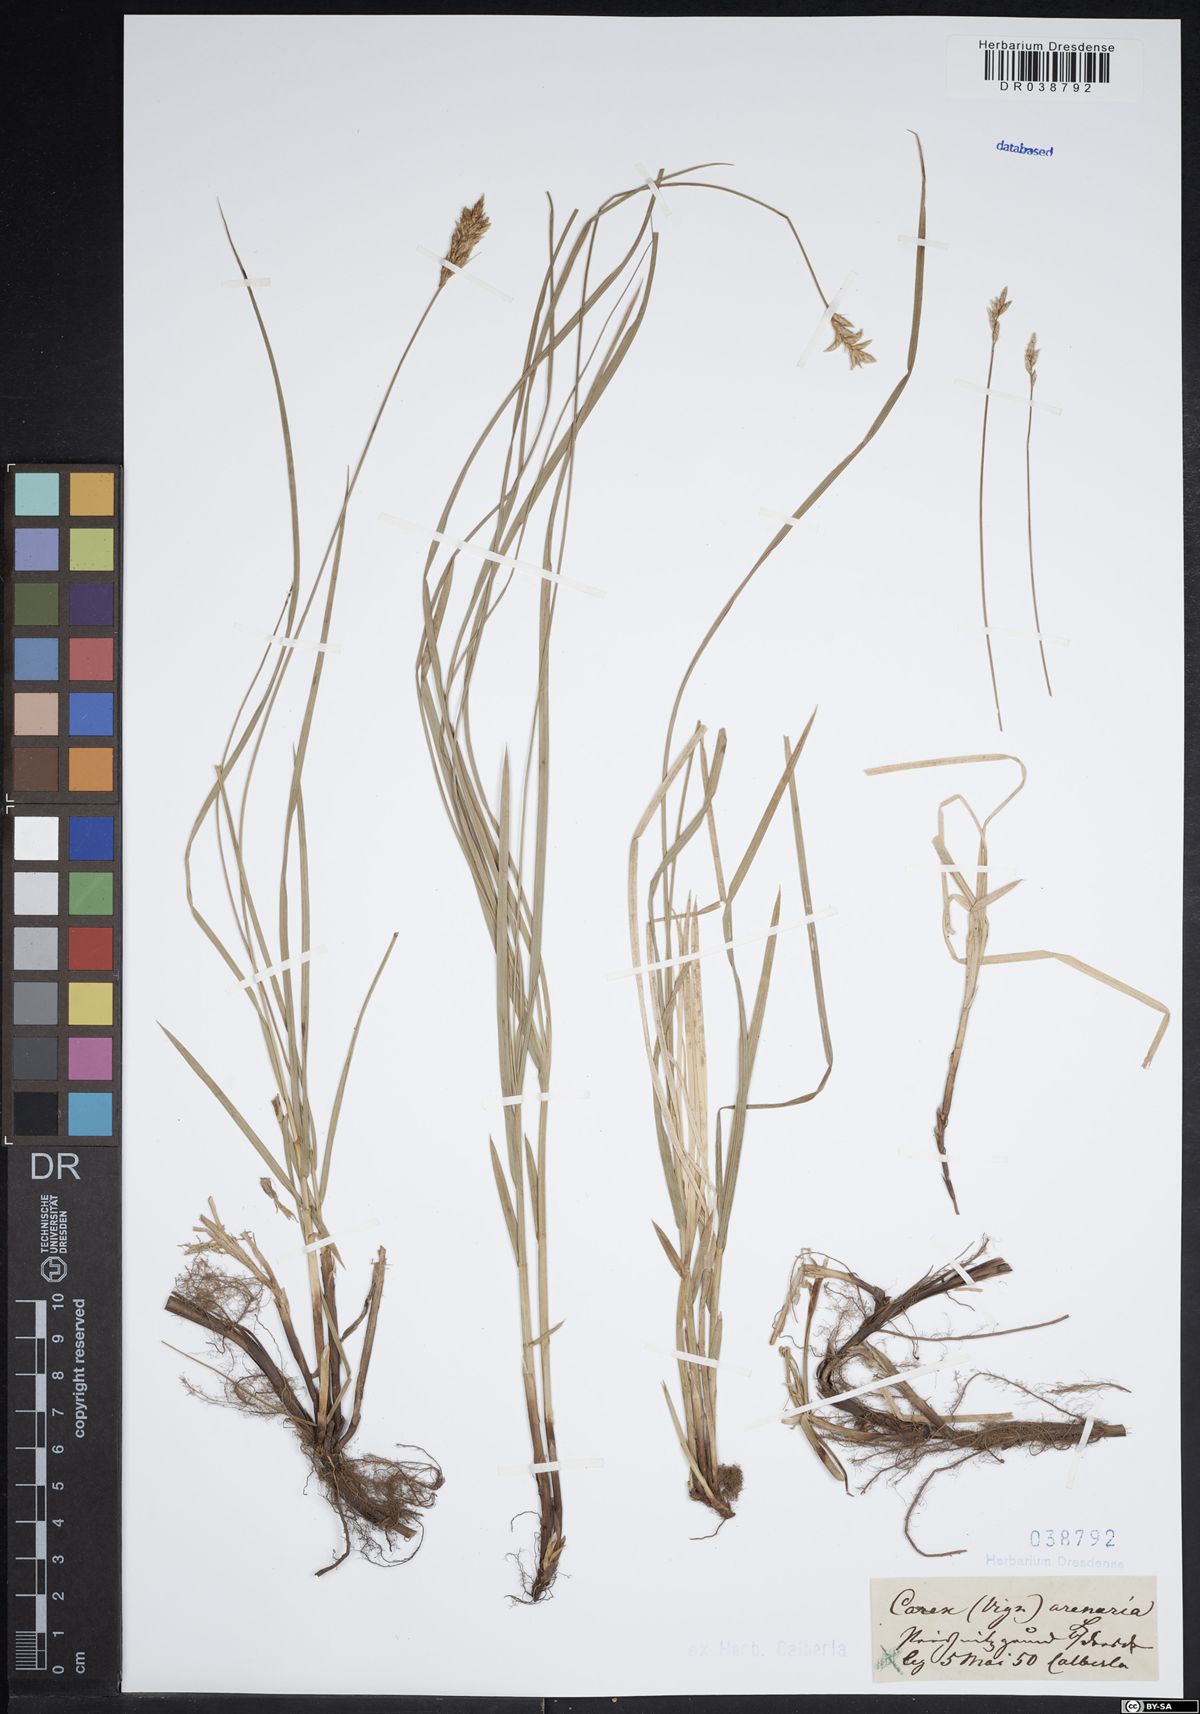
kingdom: Plantae
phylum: Tracheophyta
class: Liliopsida
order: Poales
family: Cyperaceae
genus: Carex
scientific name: Carex arenaria
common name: Sand sedge
